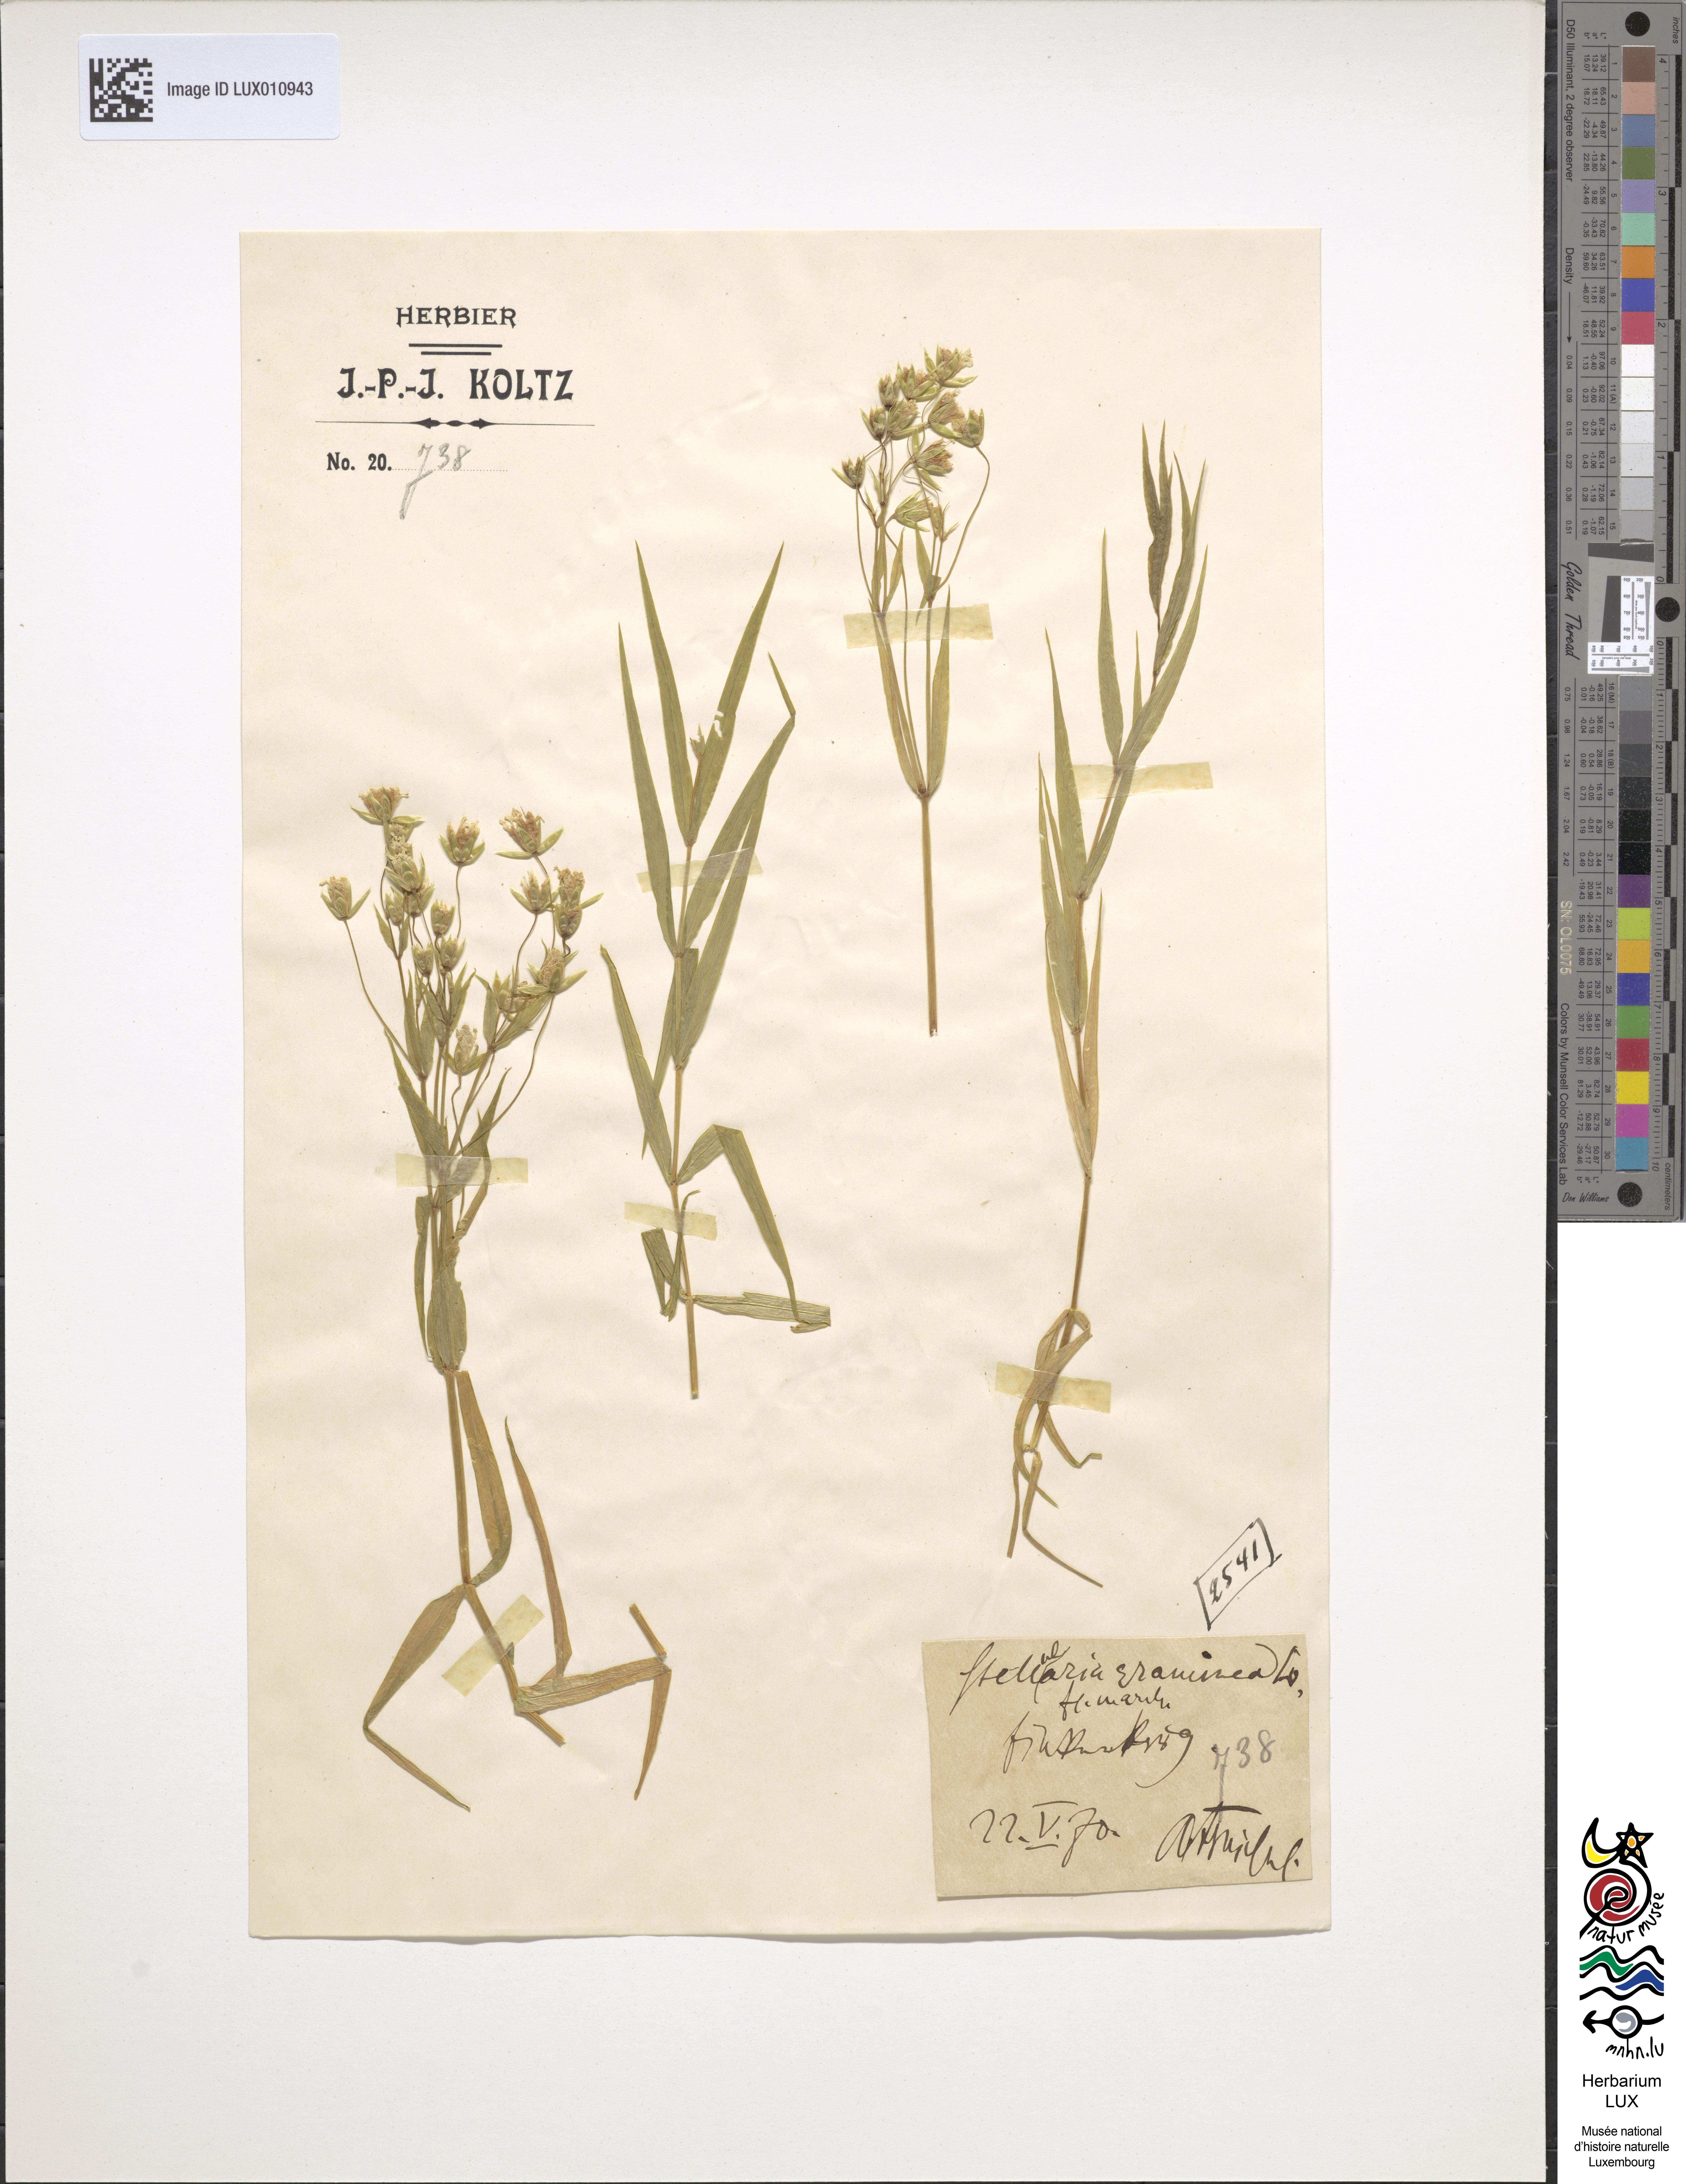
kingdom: Plantae
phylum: Tracheophyta
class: Magnoliopsida
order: Caryophyllales
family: Caryophyllaceae
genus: Stellaria
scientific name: Stellaria graminea
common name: Grass-like starwort
